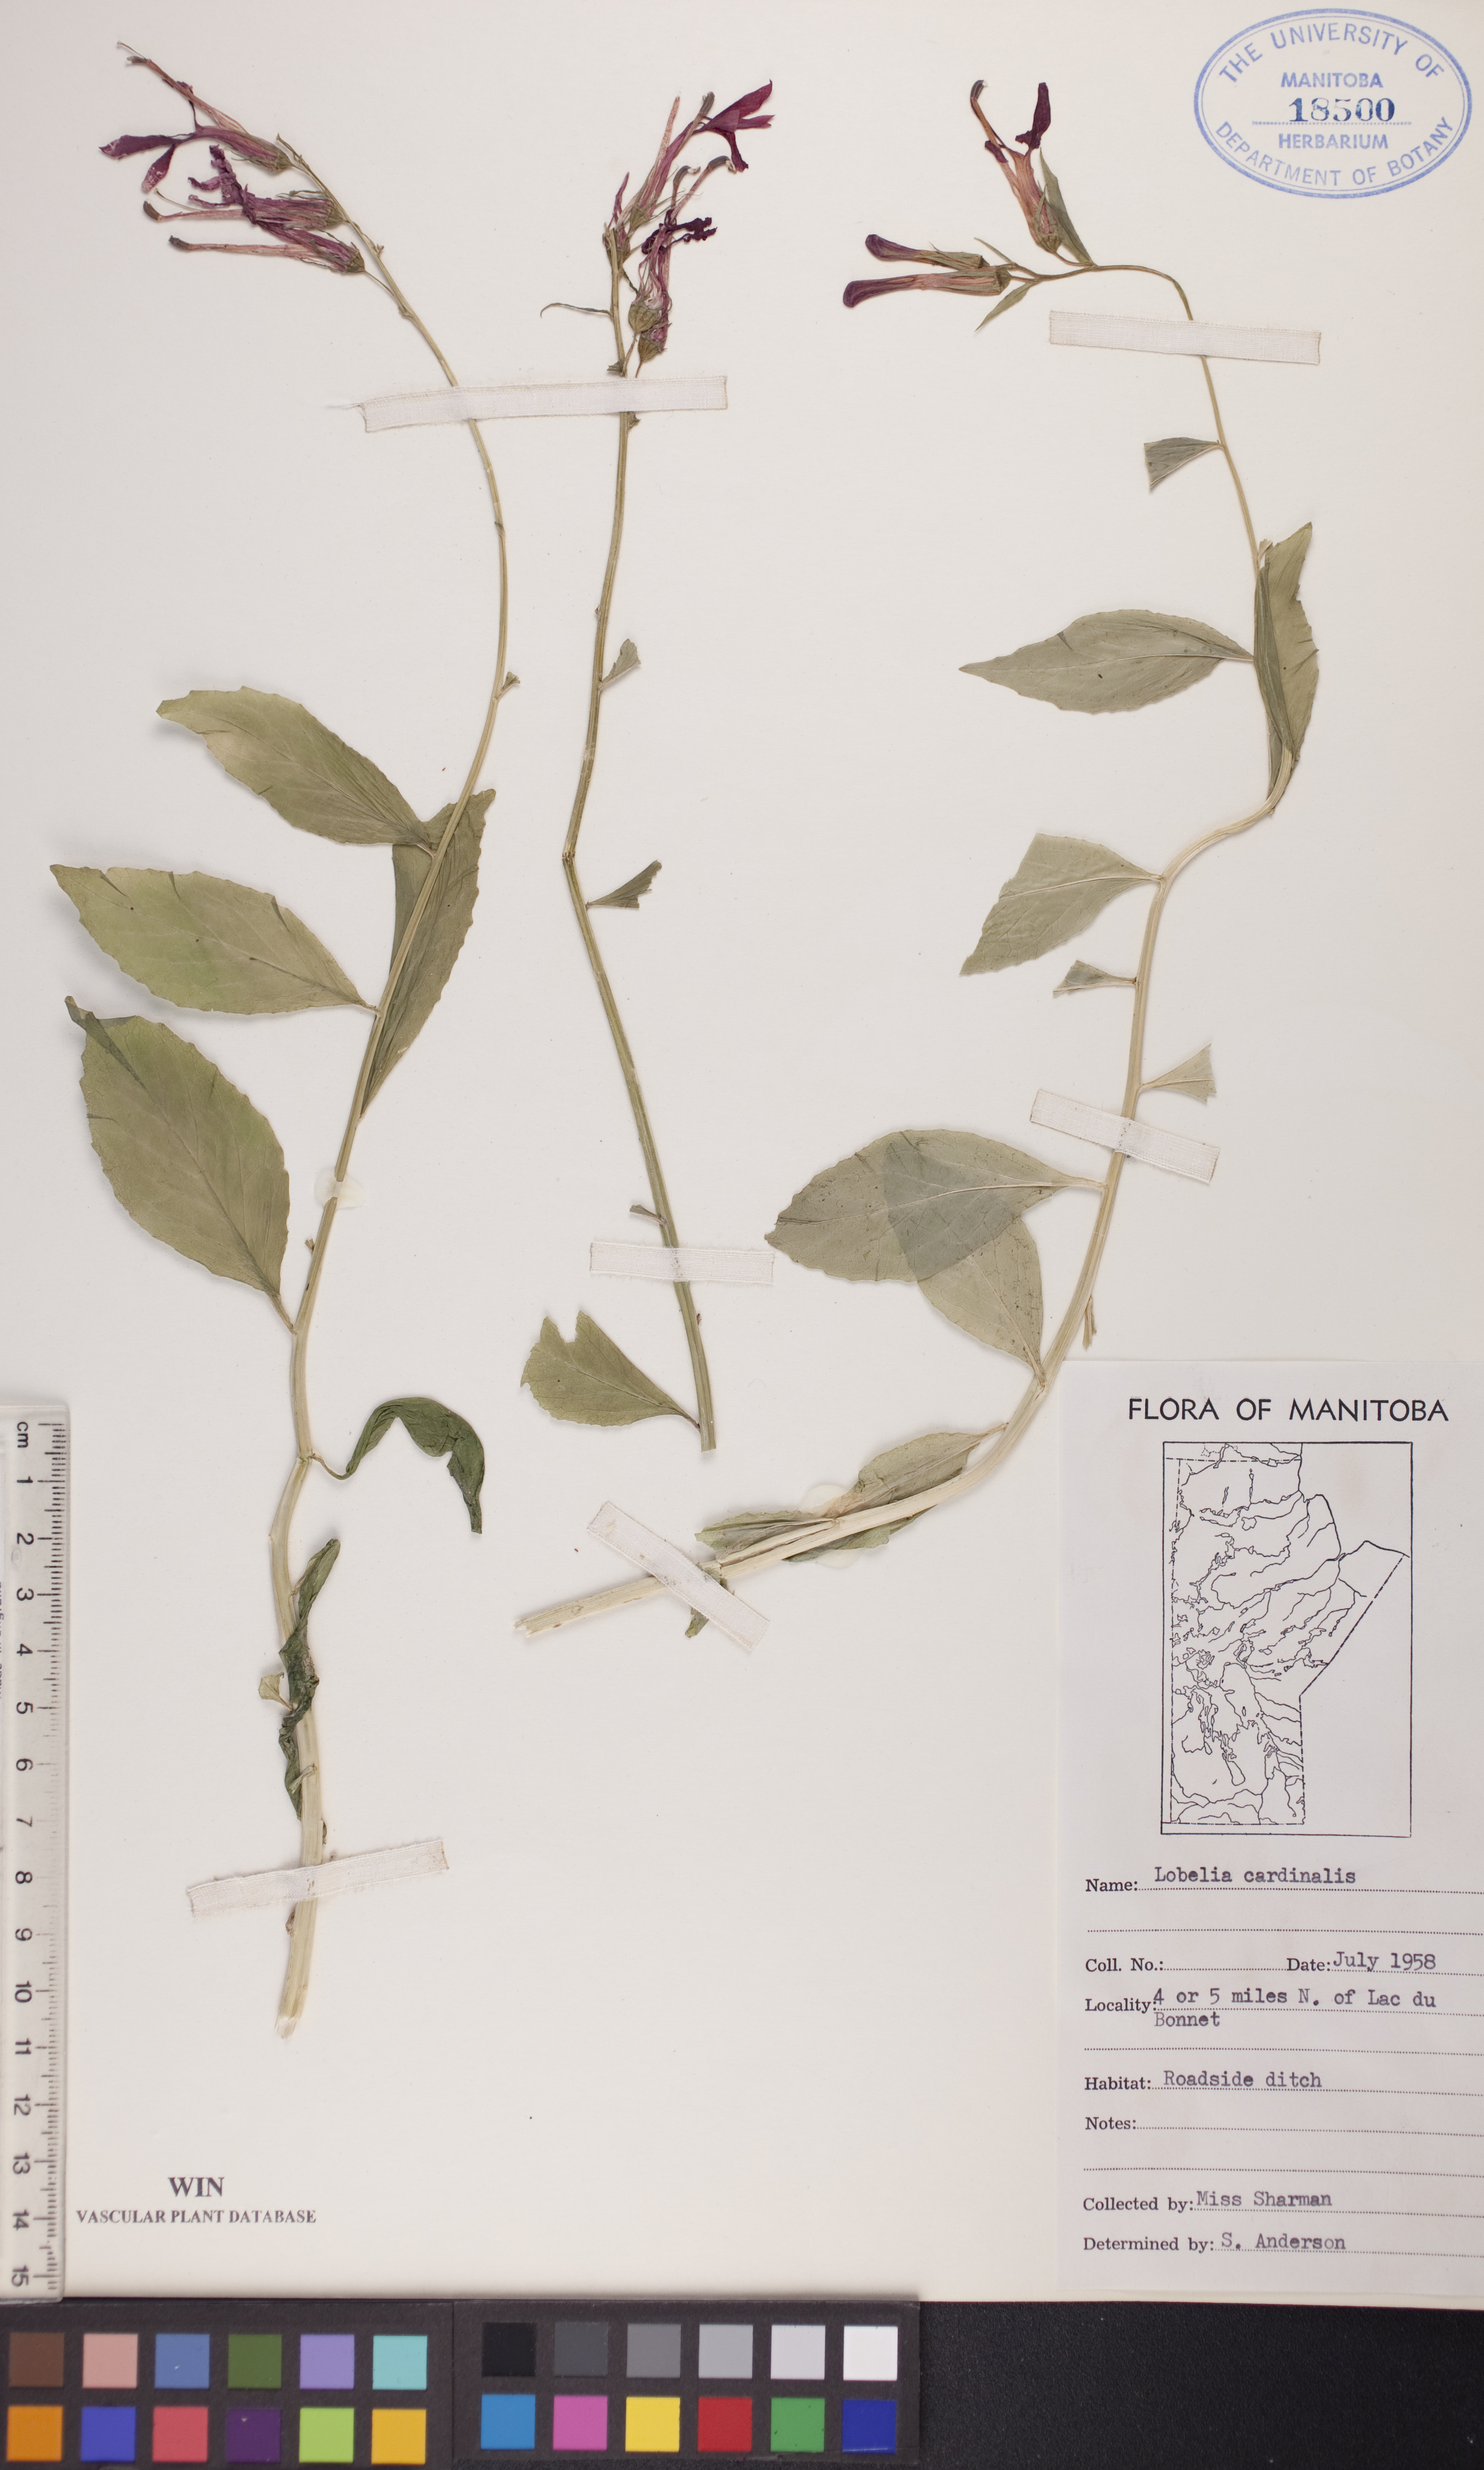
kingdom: Plantae
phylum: Tracheophyta
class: Magnoliopsida
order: Asterales
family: Campanulaceae
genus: Lobelia
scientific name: Lobelia cardinalis
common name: Cardinal flower
